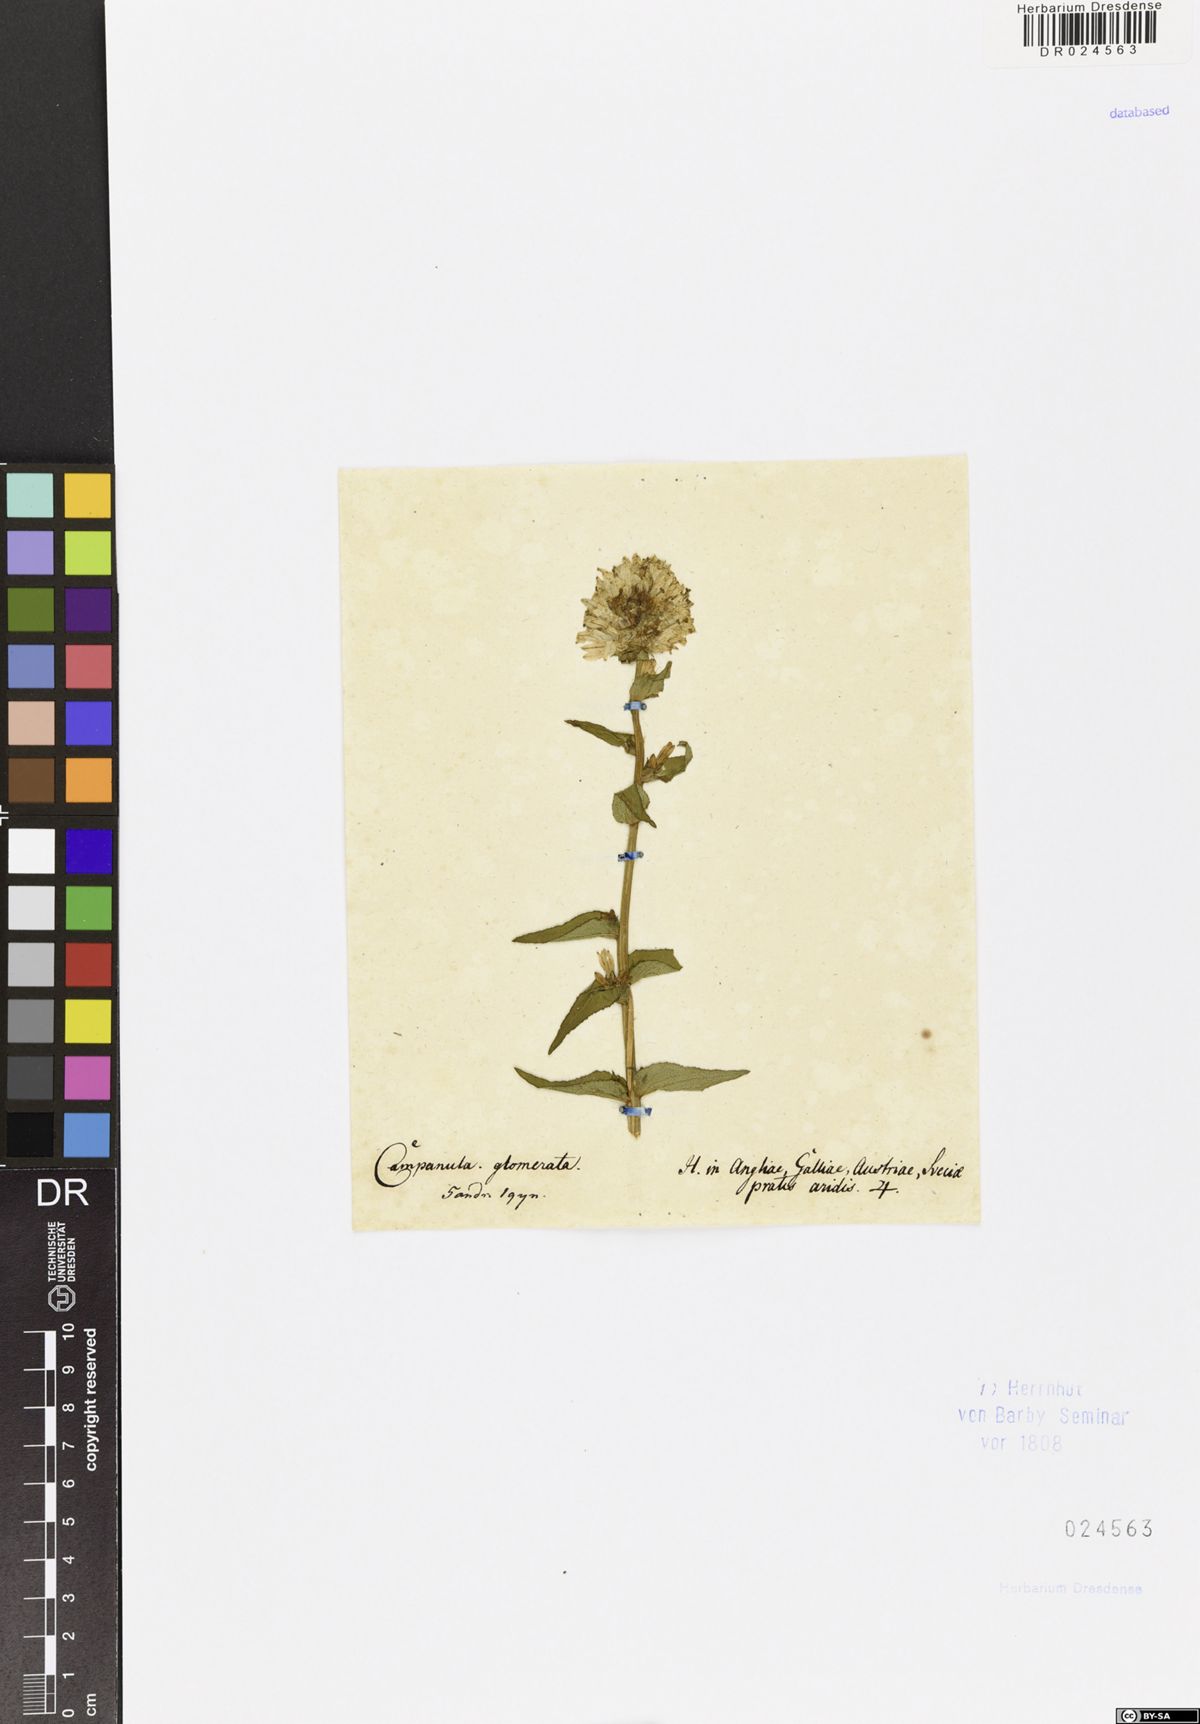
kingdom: Plantae
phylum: Tracheophyta
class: Magnoliopsida
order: Asterales
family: Campanulaceae
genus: Campanula
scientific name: Campanula glomerata
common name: Clustered bellflower
